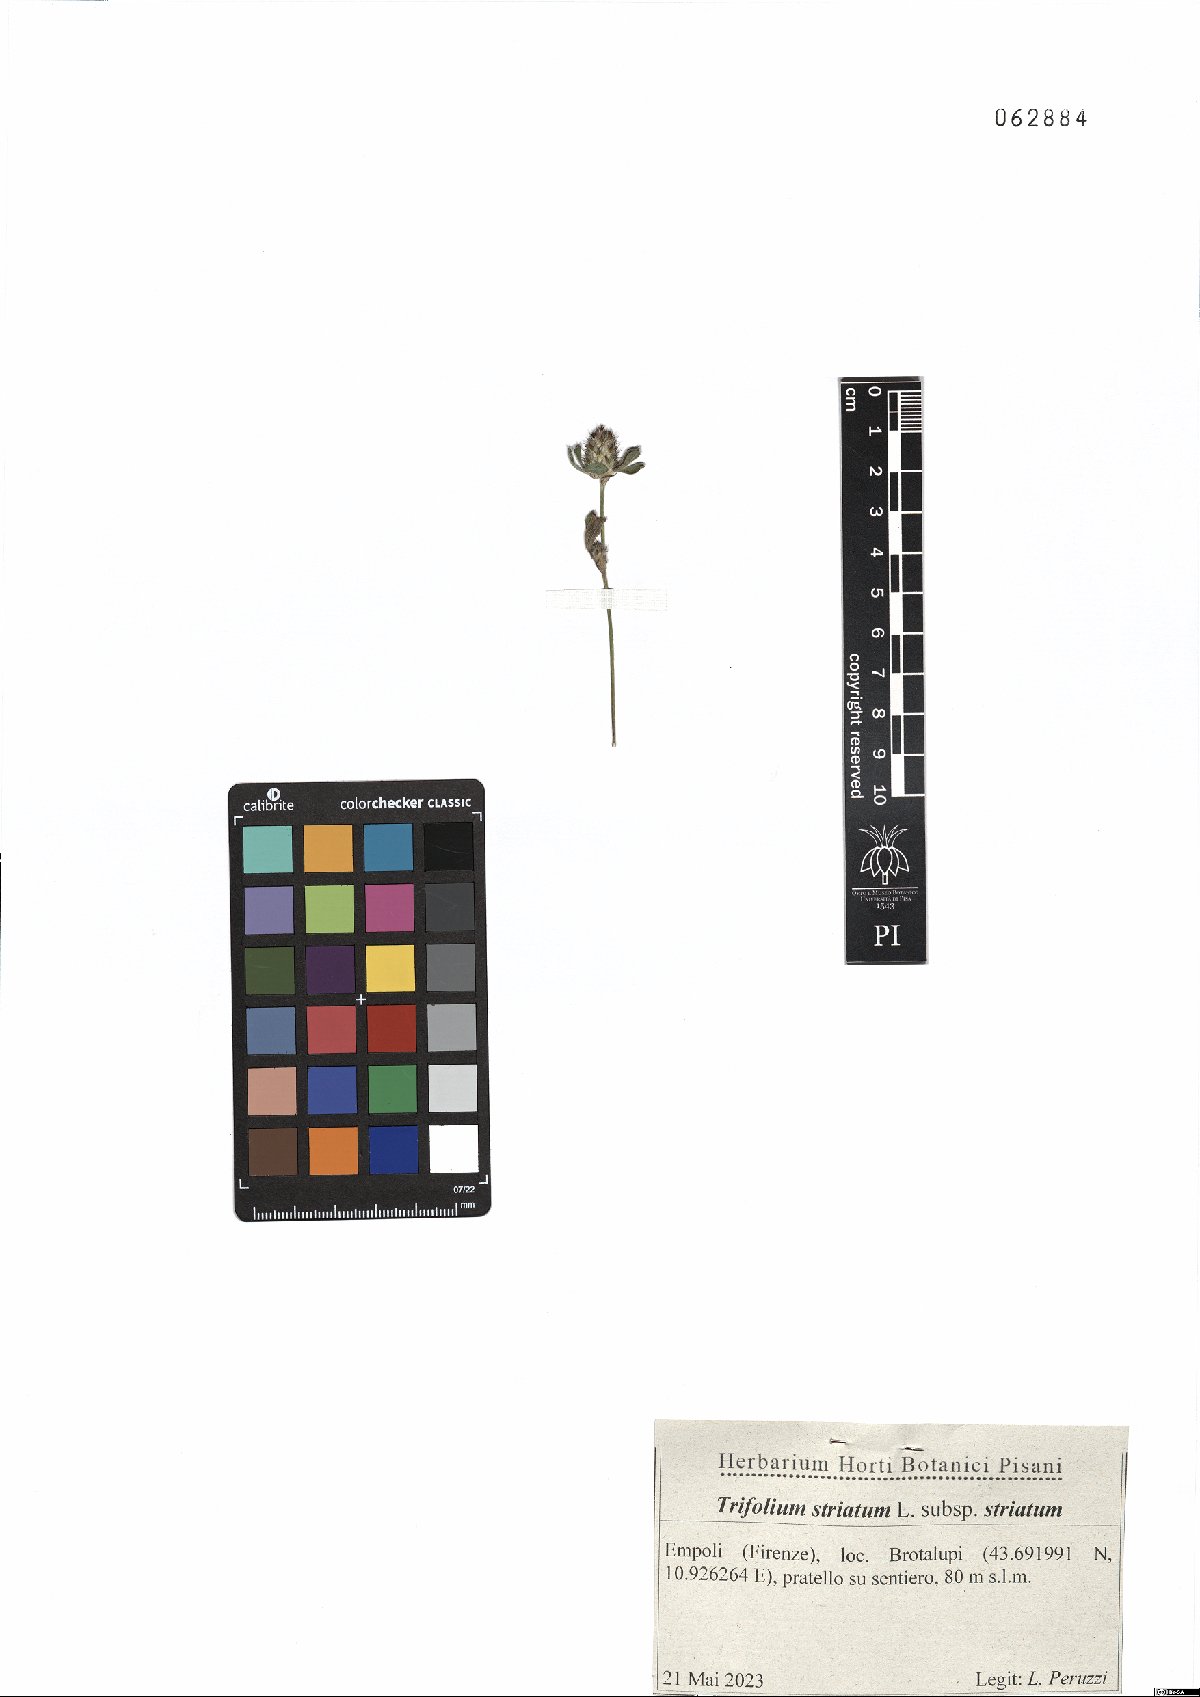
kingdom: Plantae
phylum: Tracheophyta
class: Magnoliopsida
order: Fabales
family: Fabaceae
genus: Trifolium
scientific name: Trifolium striatum
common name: Knotted clover
